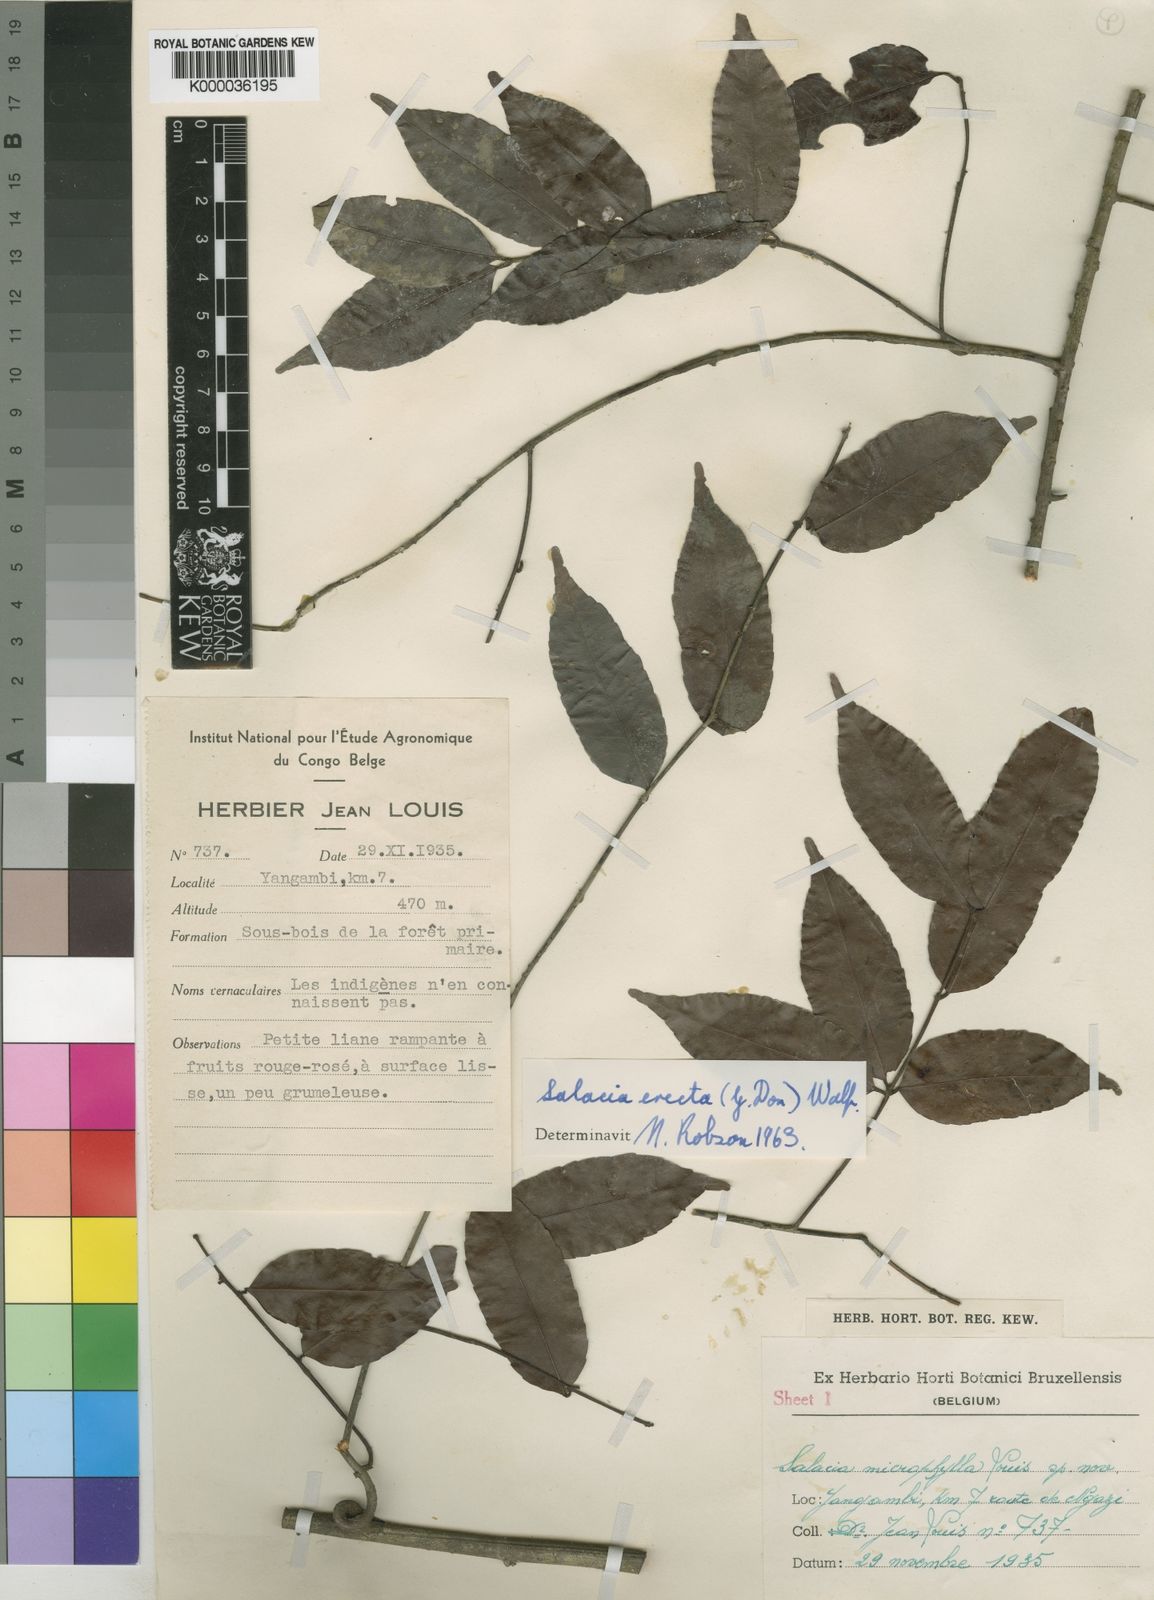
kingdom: Plantae
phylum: Tracheophyta
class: Magnoliopsida
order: Celastrales
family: Celastraceae
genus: Salacia
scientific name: Salacia erecta
